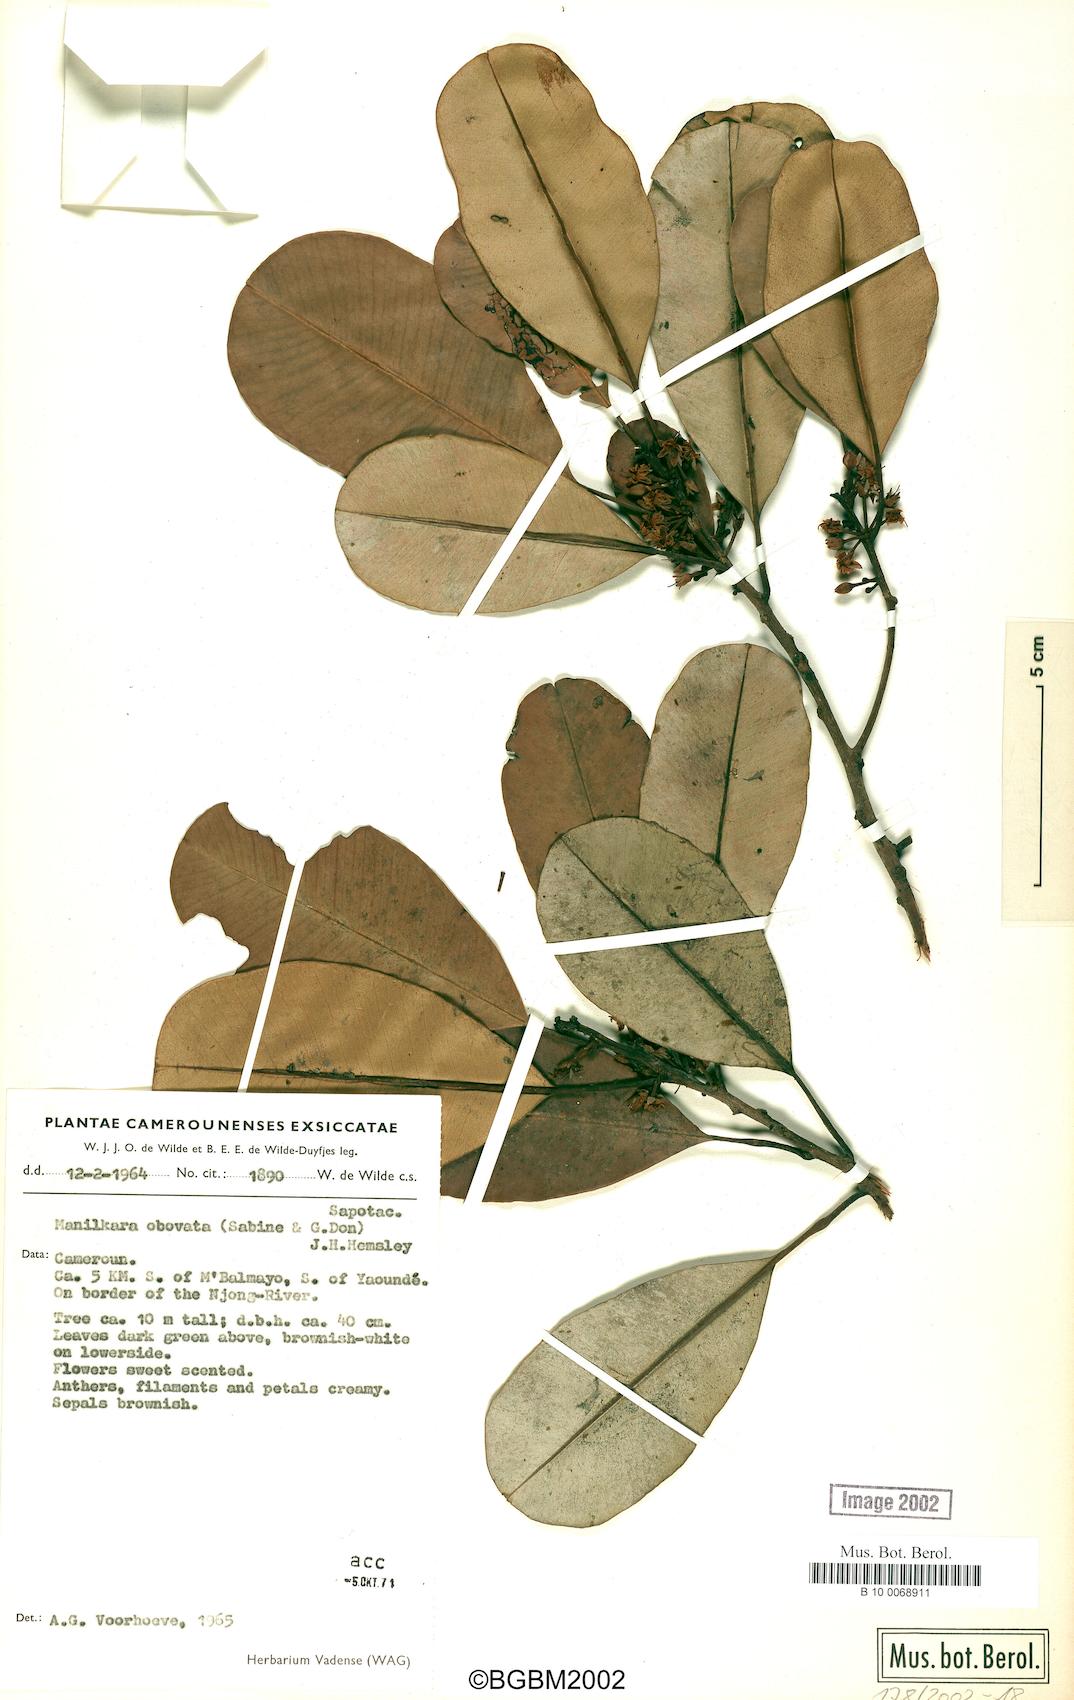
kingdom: Plantae
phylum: Tracheophyta
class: Magnoliopsida
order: Ericales
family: Sapotaceae
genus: Manilkara
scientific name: Manilkara obovata
